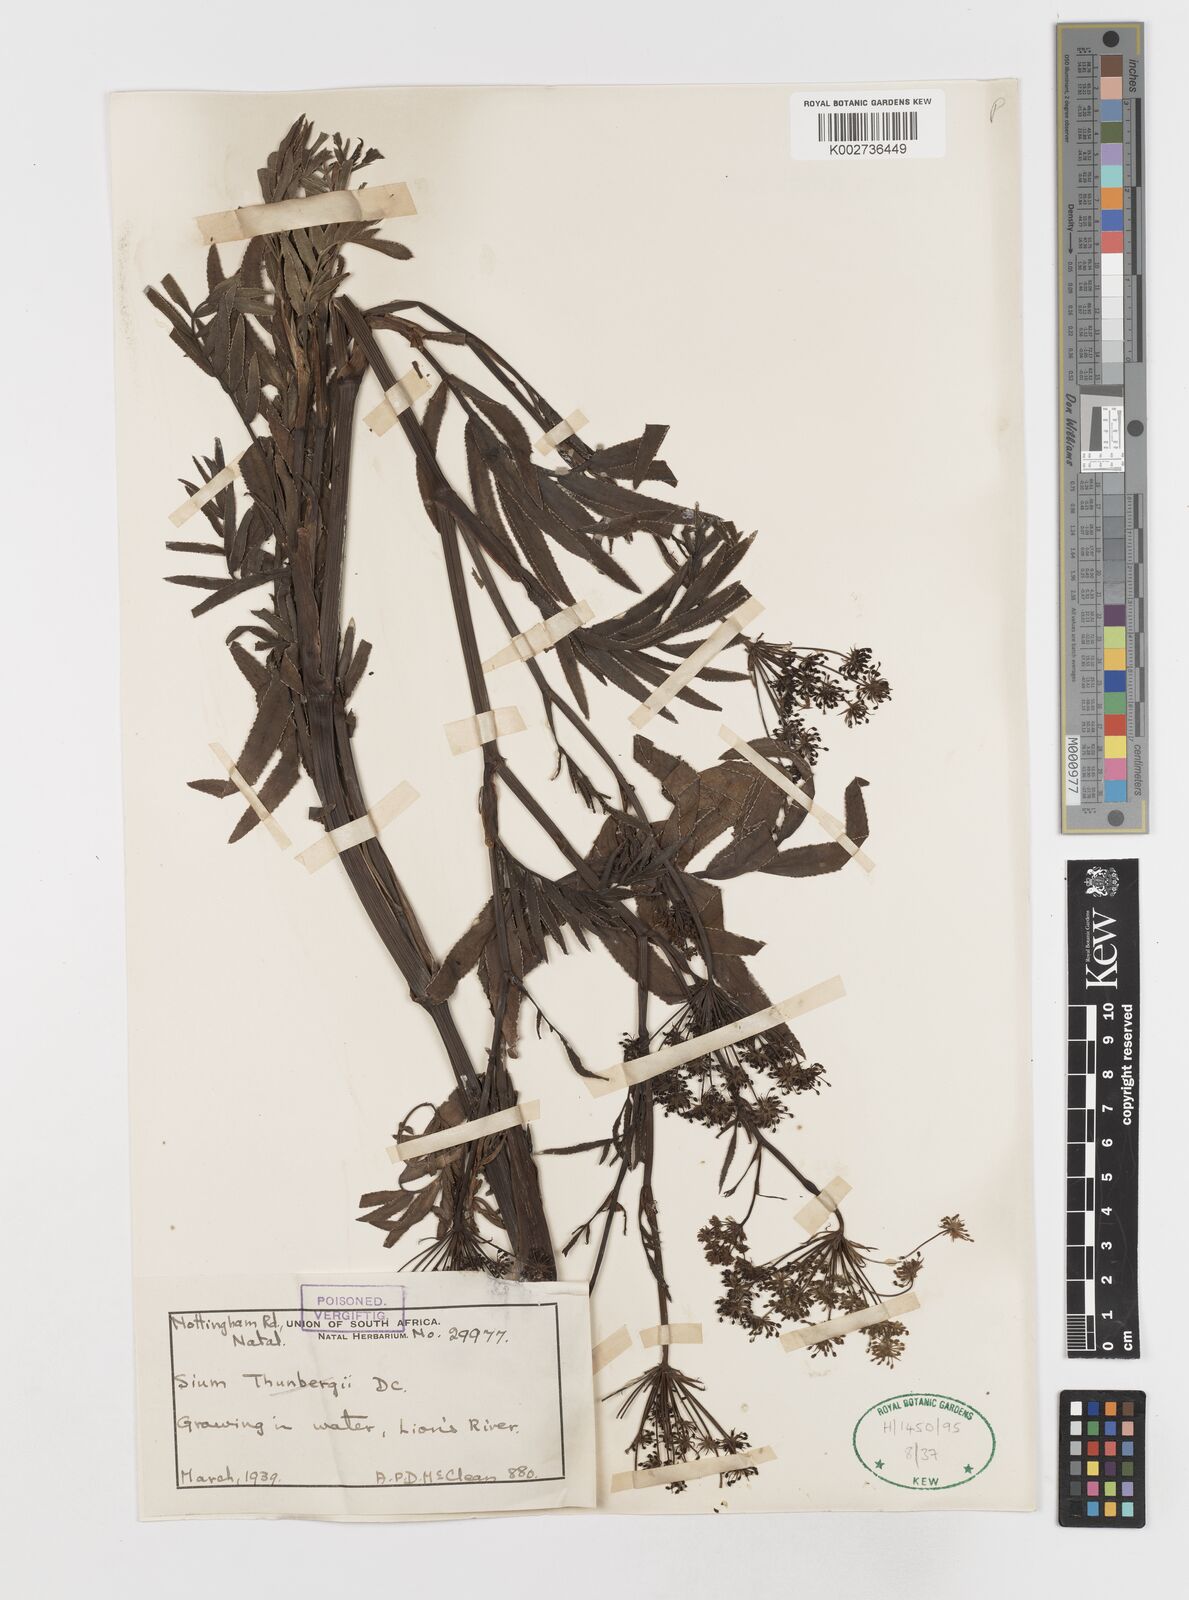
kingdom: Plantae
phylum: Tracheophyta
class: Magnoliopsida
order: Apiales
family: Apiaceae
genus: Berula
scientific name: Berula repanda
